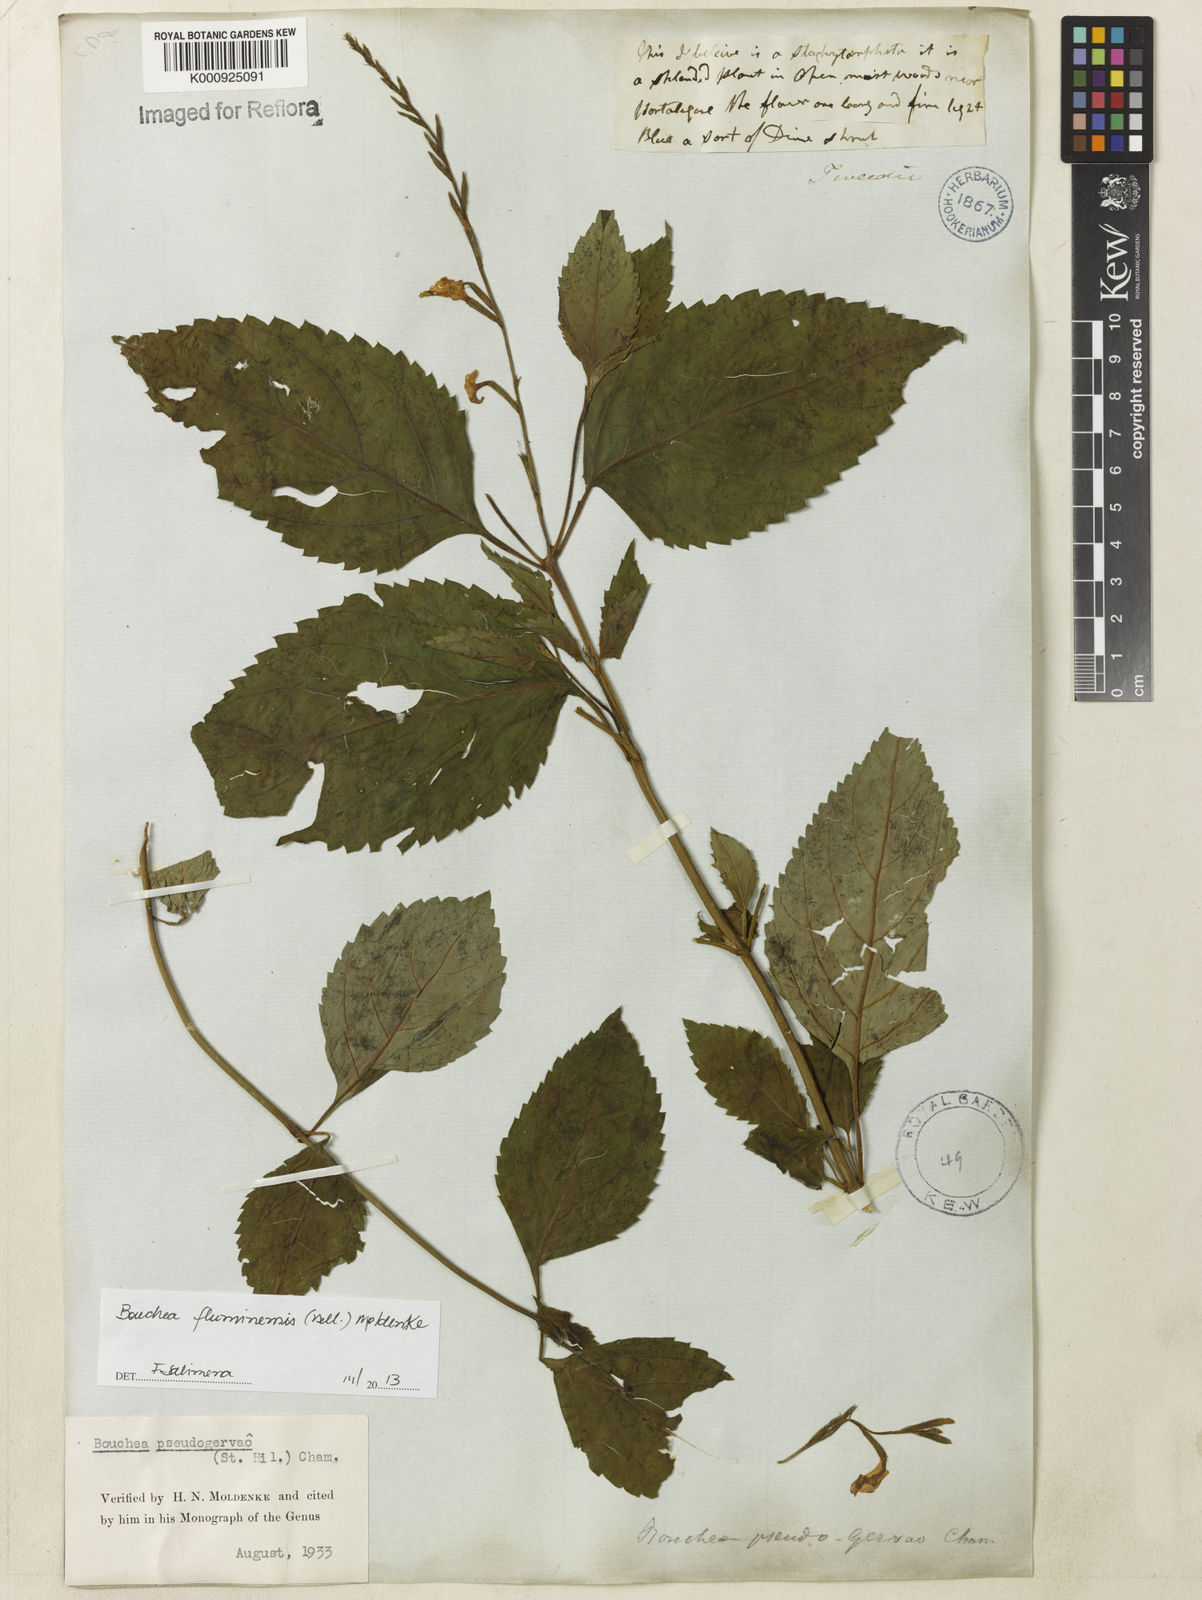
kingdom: Plantae
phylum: Tracheophyta
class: Magnoliopsida
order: Lamiales
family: Verbenaceae
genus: Bouchea
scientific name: Bouchea pseudogervao
